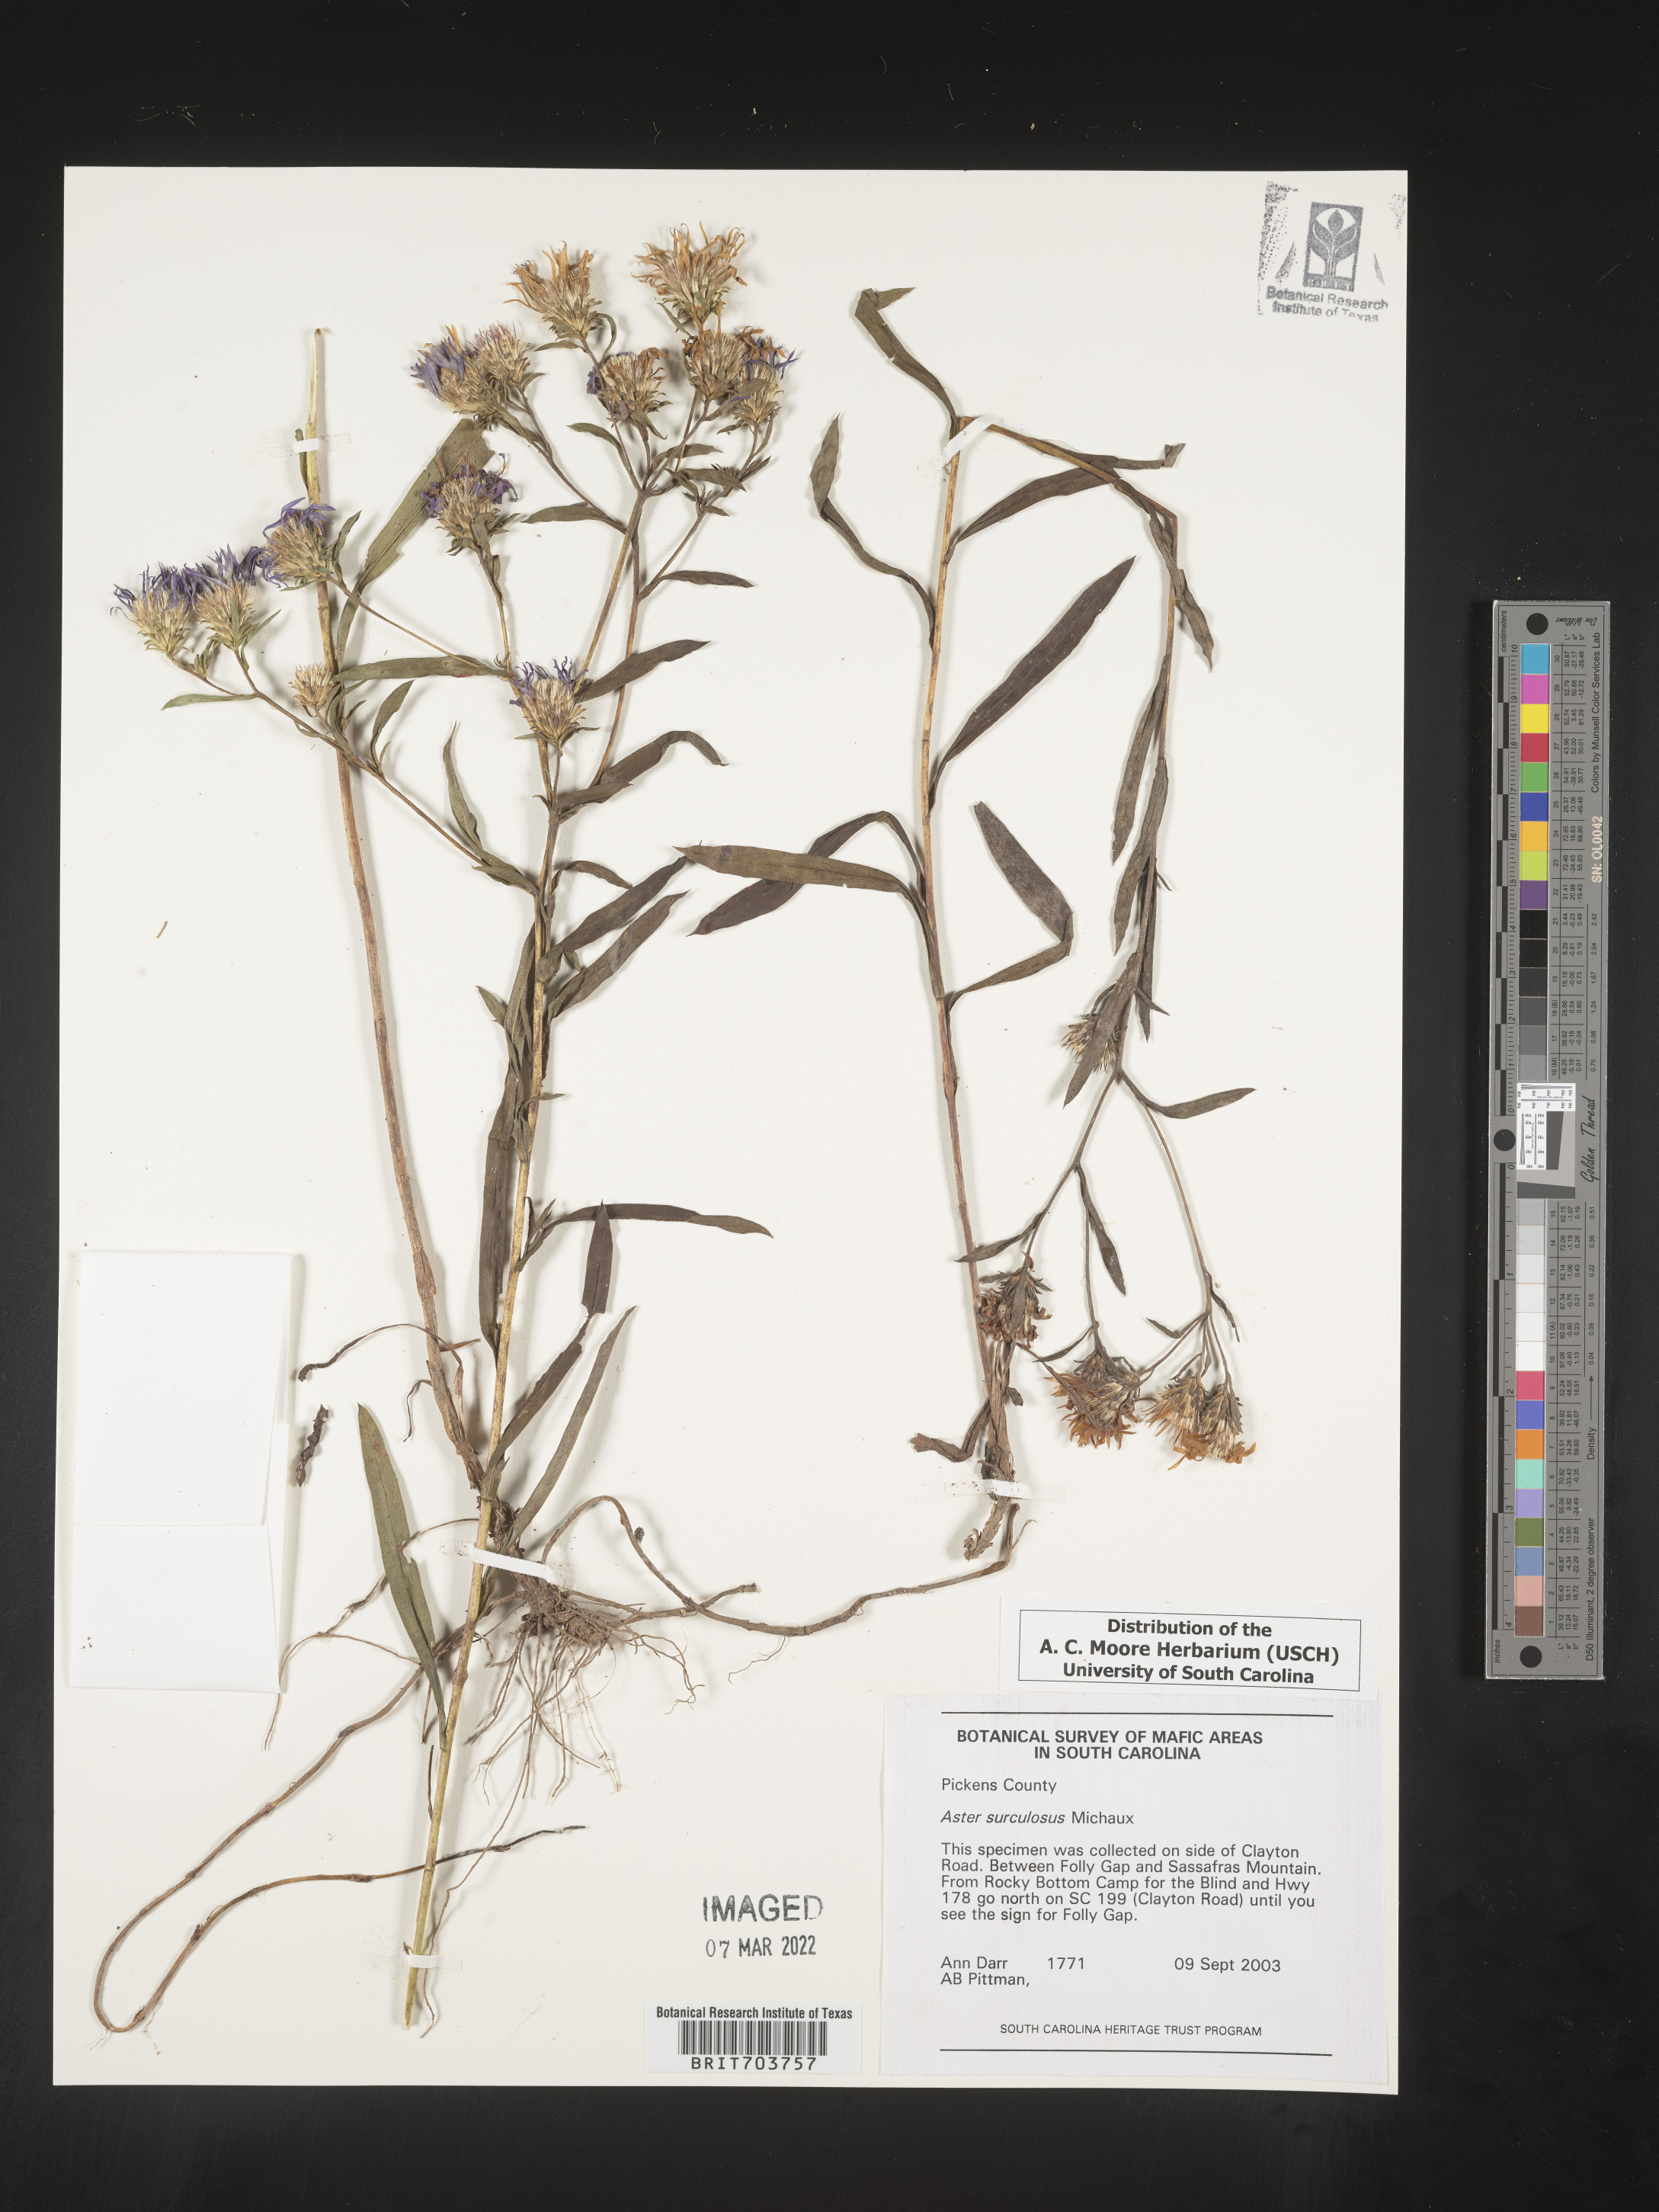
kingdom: Plantae
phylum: Tracheophyta
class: Magnoliopsida
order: Asterales
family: Asteraceae
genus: Eurybia
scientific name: Eurybia surculosa
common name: Creeping aster
